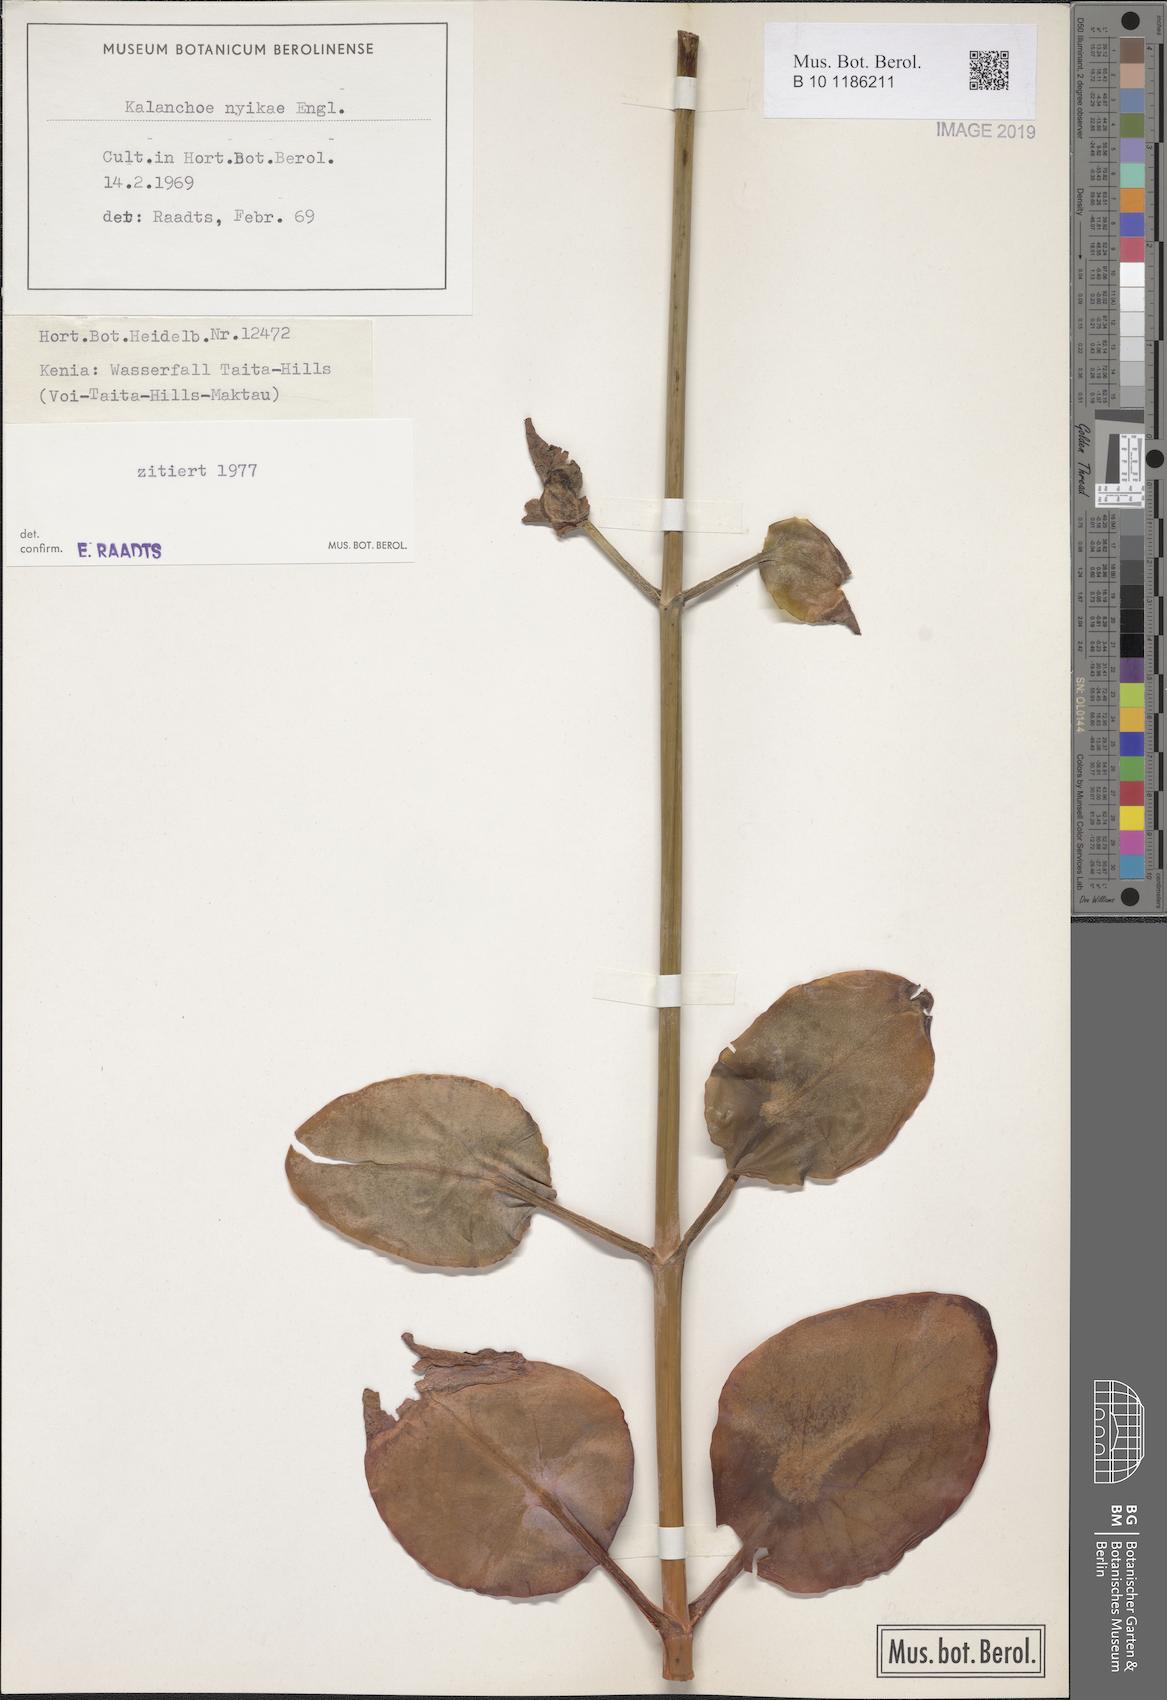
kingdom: Plantae
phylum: Tracheophyta
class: Magnoliopsida
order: Saxifragales
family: Crassulaceae
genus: Kalanchoe
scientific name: Kalanchoe nyikae
